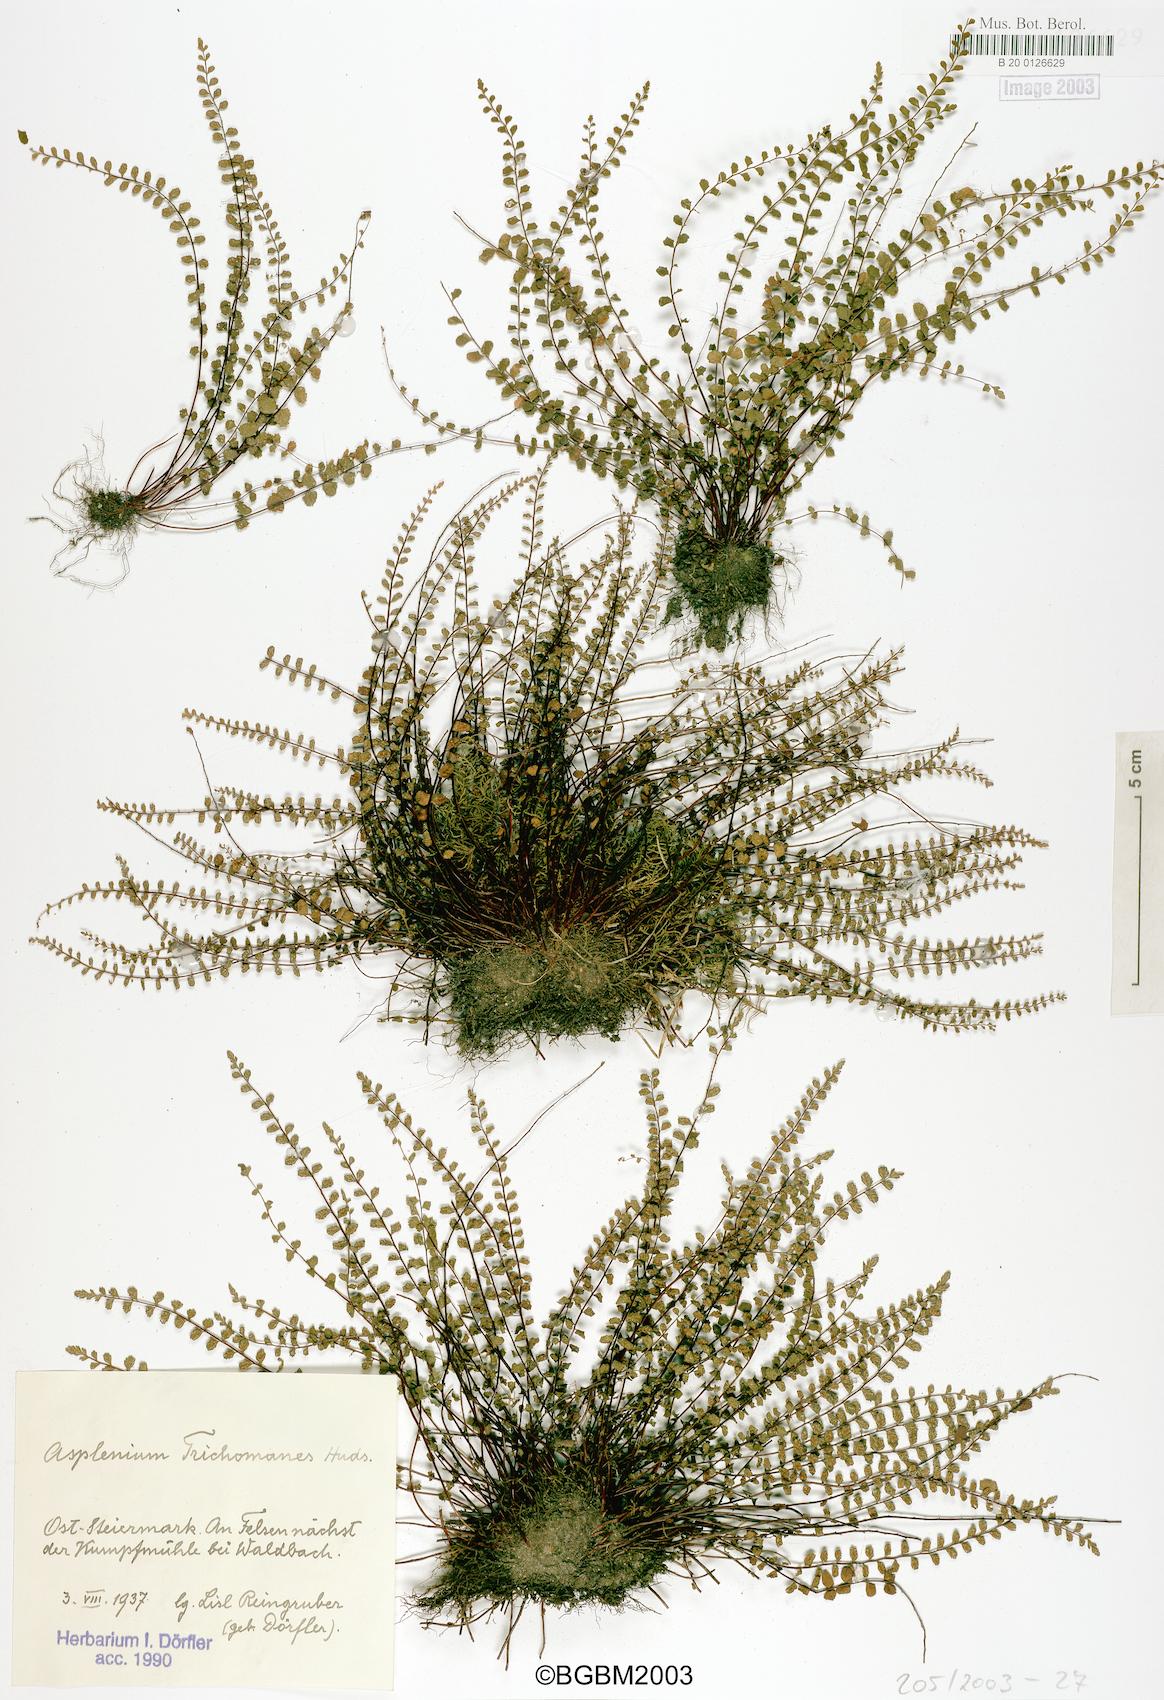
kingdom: Plantae
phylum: Tracheophyta
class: Polypodiopsida
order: Polypodiales
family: Aspleniaceae
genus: Asplenium
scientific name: Asplenium trichomanes
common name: Maidenhair spleenwort
